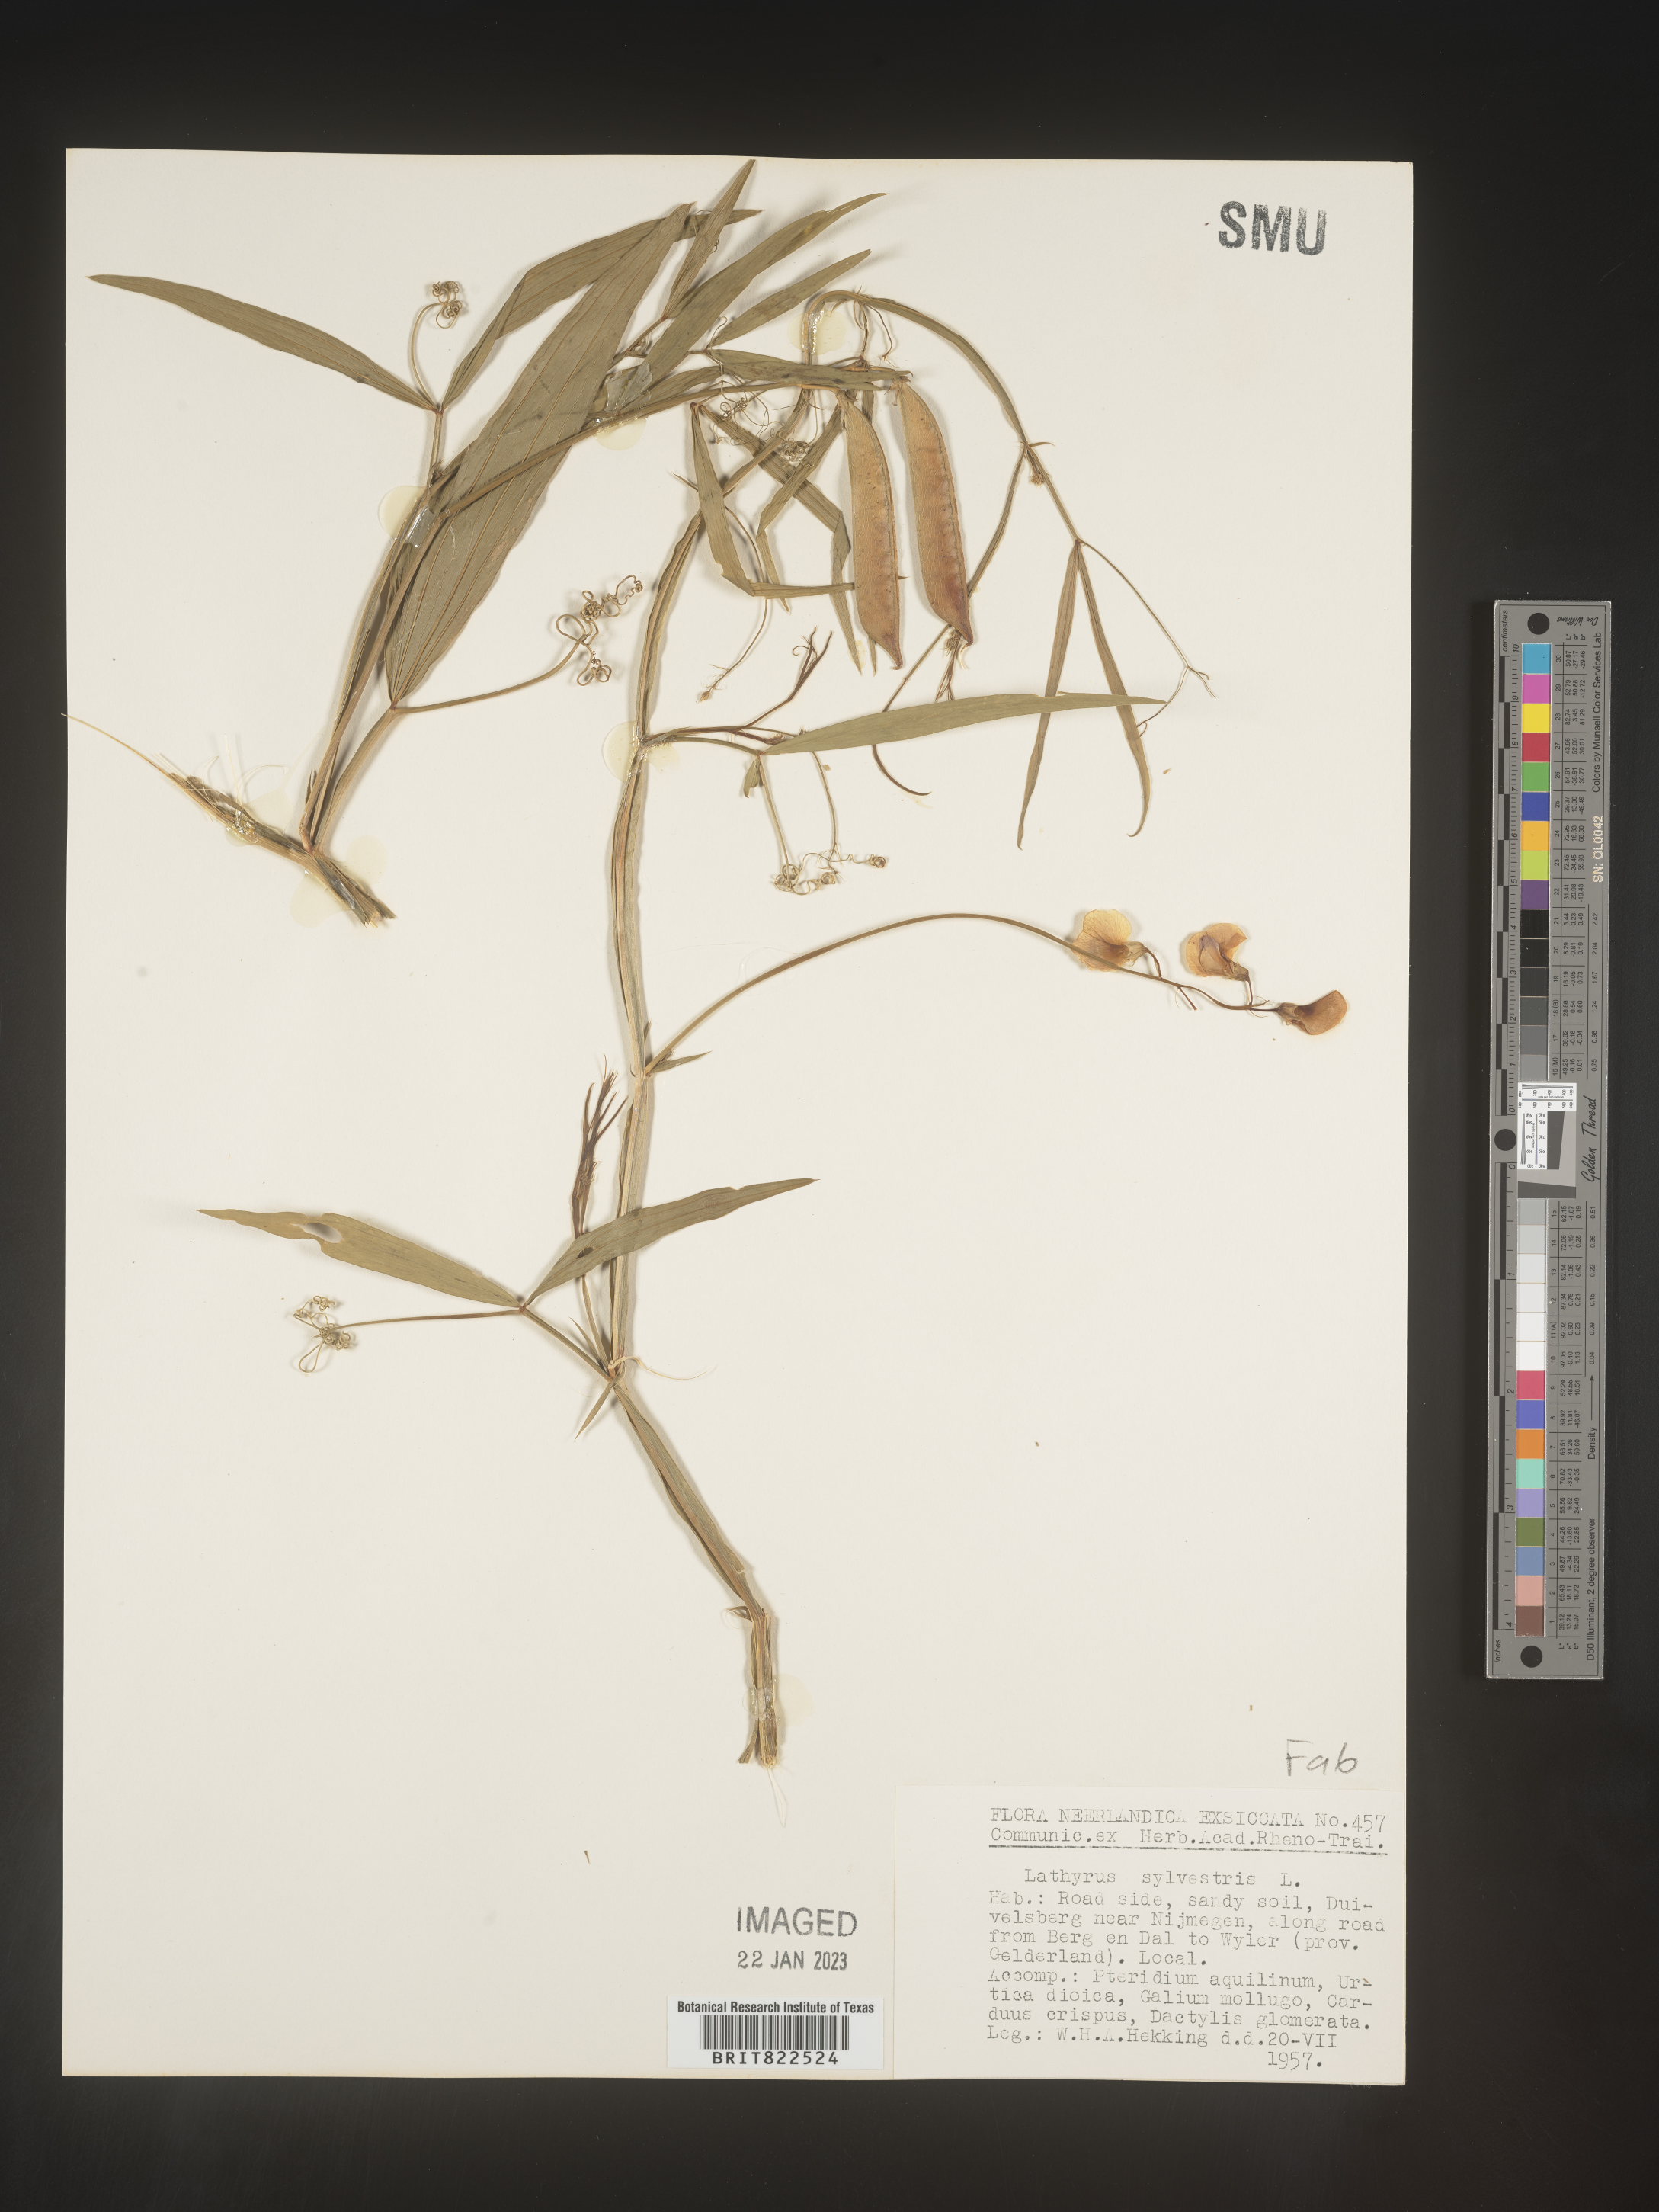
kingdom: Plantae
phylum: Tracheophyta
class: Magnoliopsida
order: Fabales
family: Fabaceae
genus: Lathyrus
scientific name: Lathyrus
